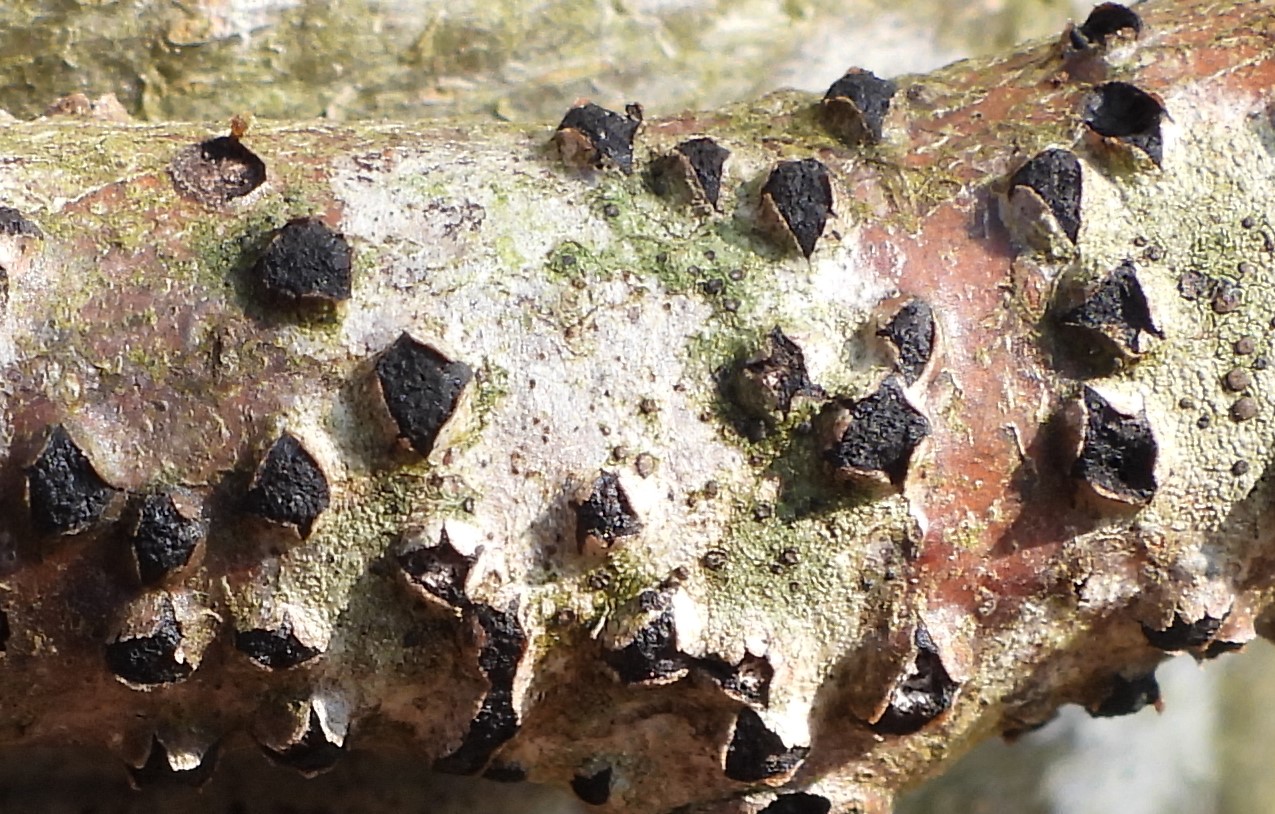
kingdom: Fungi
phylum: Ascomycota
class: Sordariomycetes
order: Xylariales
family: Diatrypaceae
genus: Diatrypella
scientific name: Diatrypella quercina
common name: ege-kulskorpe
